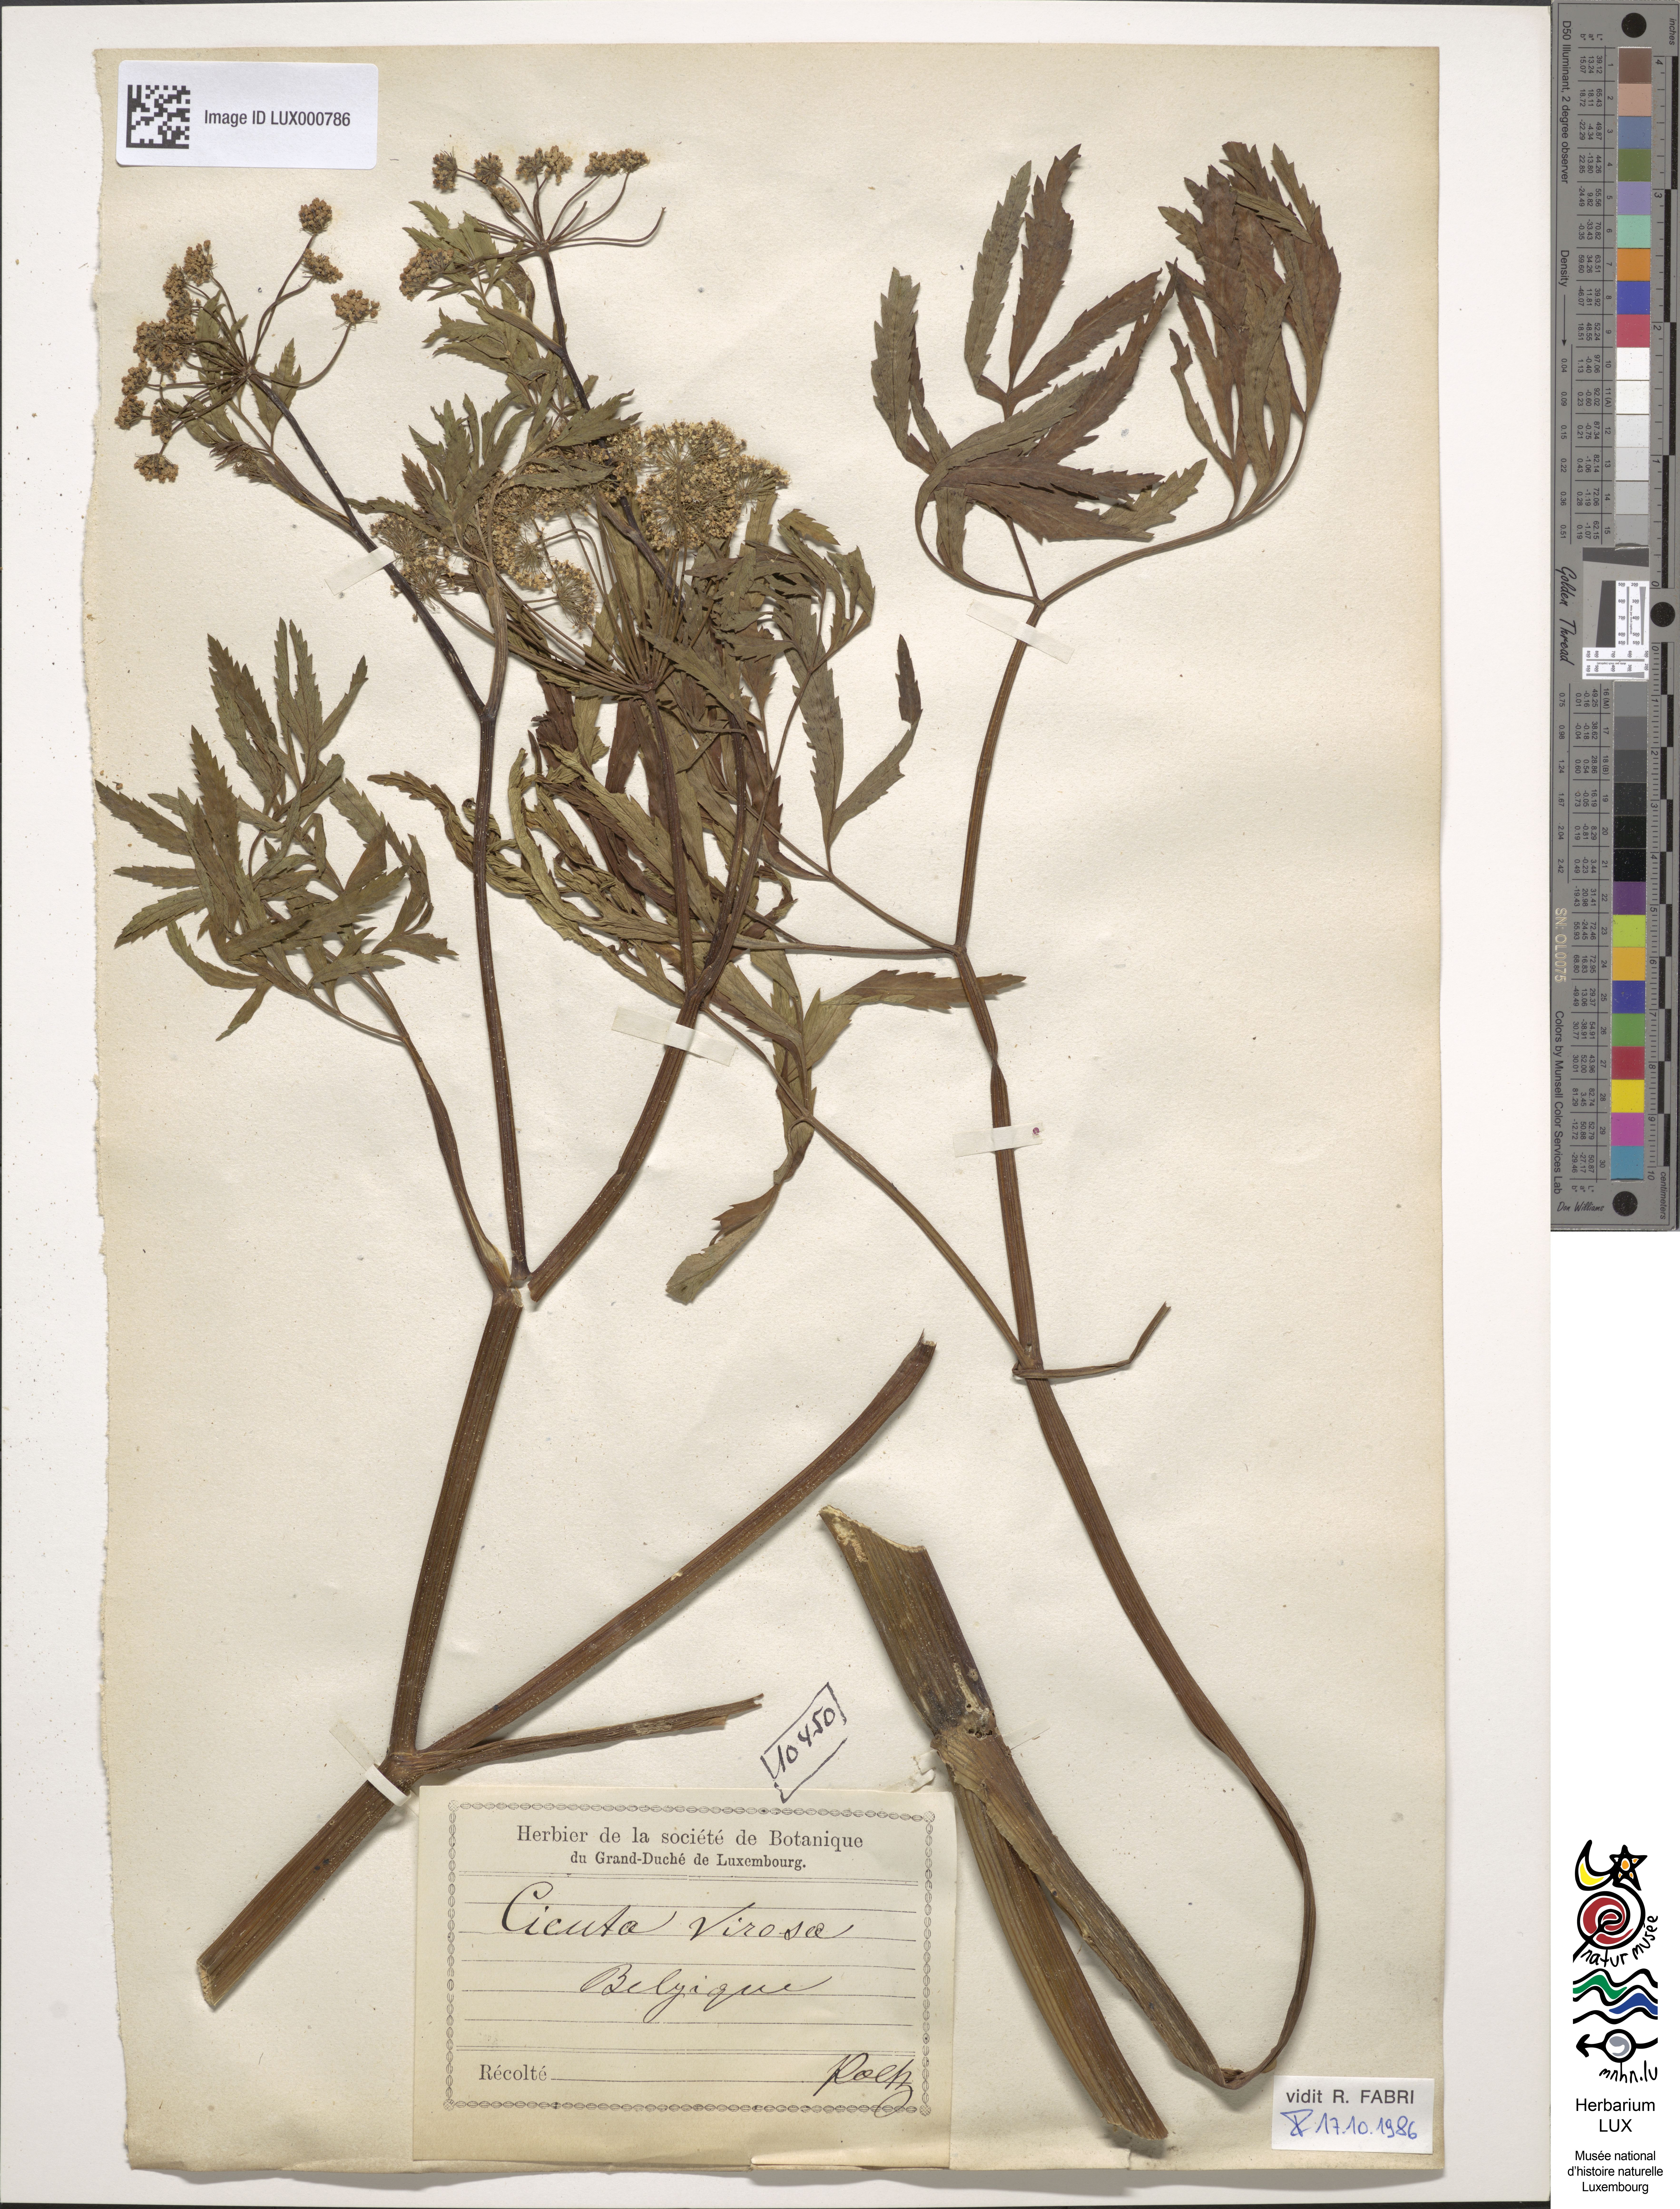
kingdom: Plantae
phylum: Tracheophyta
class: Magnoliopsida
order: Apiales
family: Apiaceae
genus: Cicuta
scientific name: Cicuta virosa
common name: Cowbane
